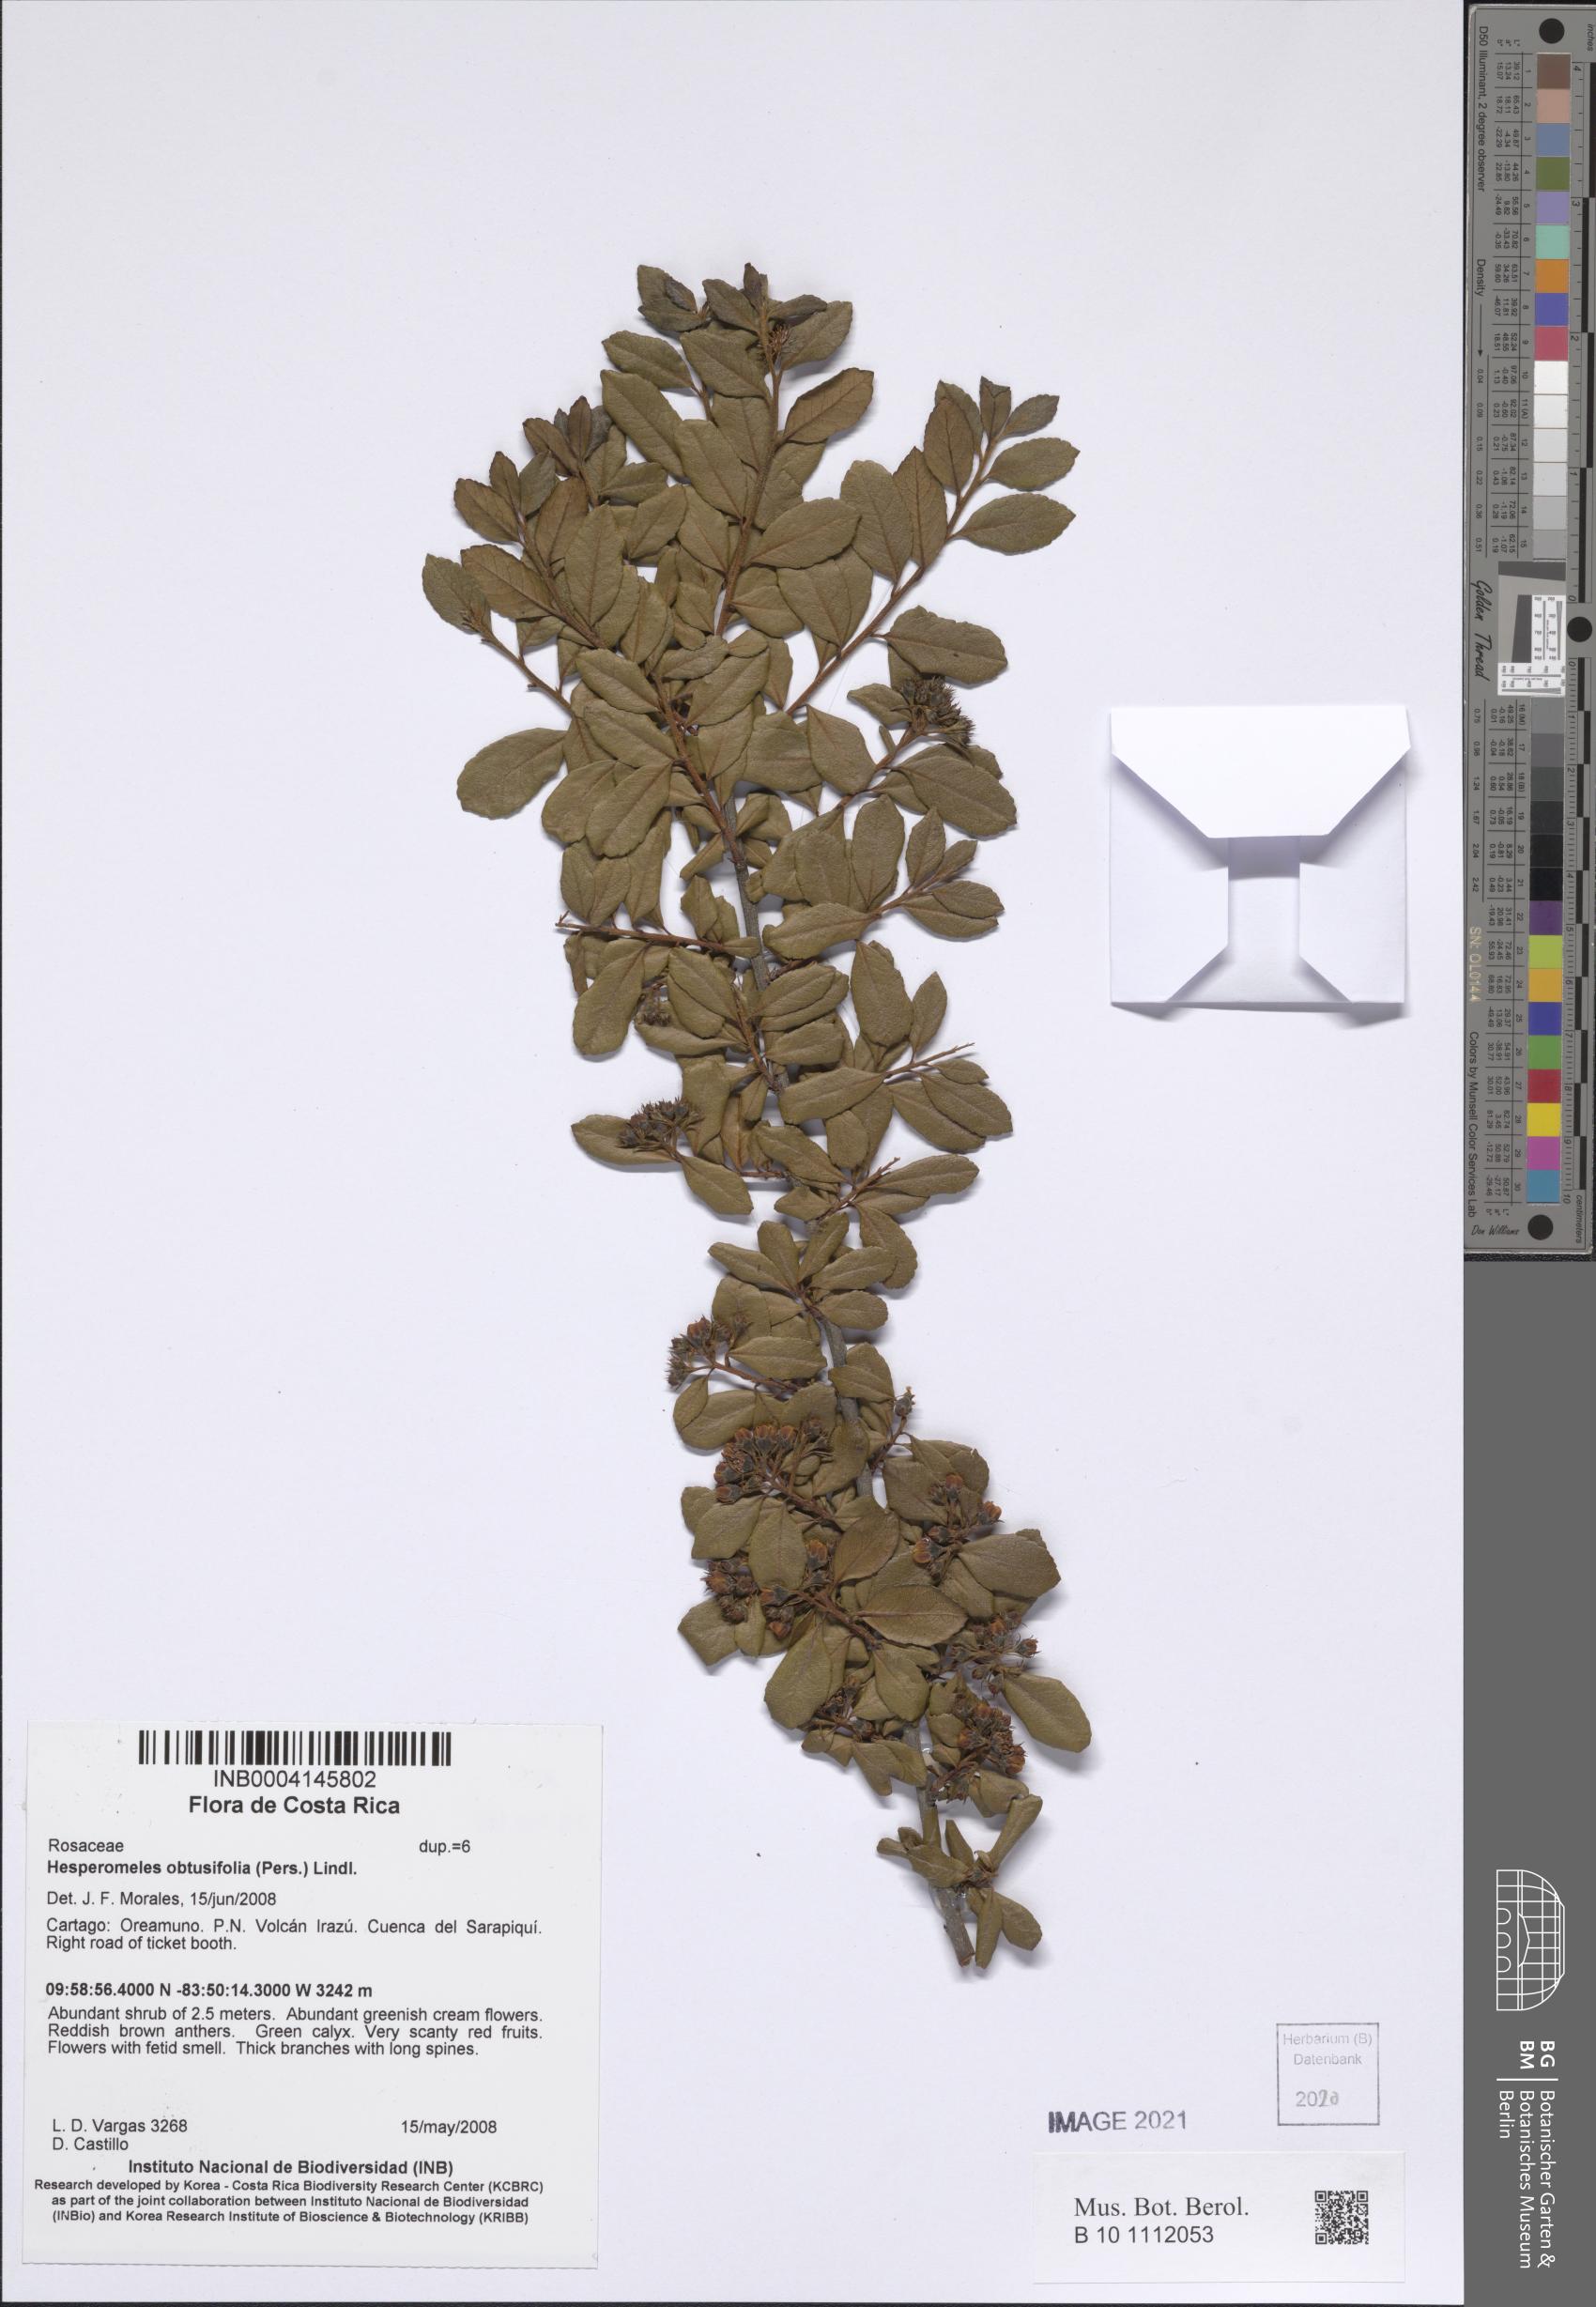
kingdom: Plantae
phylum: Tracheophyta
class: Magnoliopsida
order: Rosales
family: Rosaceae
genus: Hesperomeles
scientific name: Hesperomeles obtusifolia
